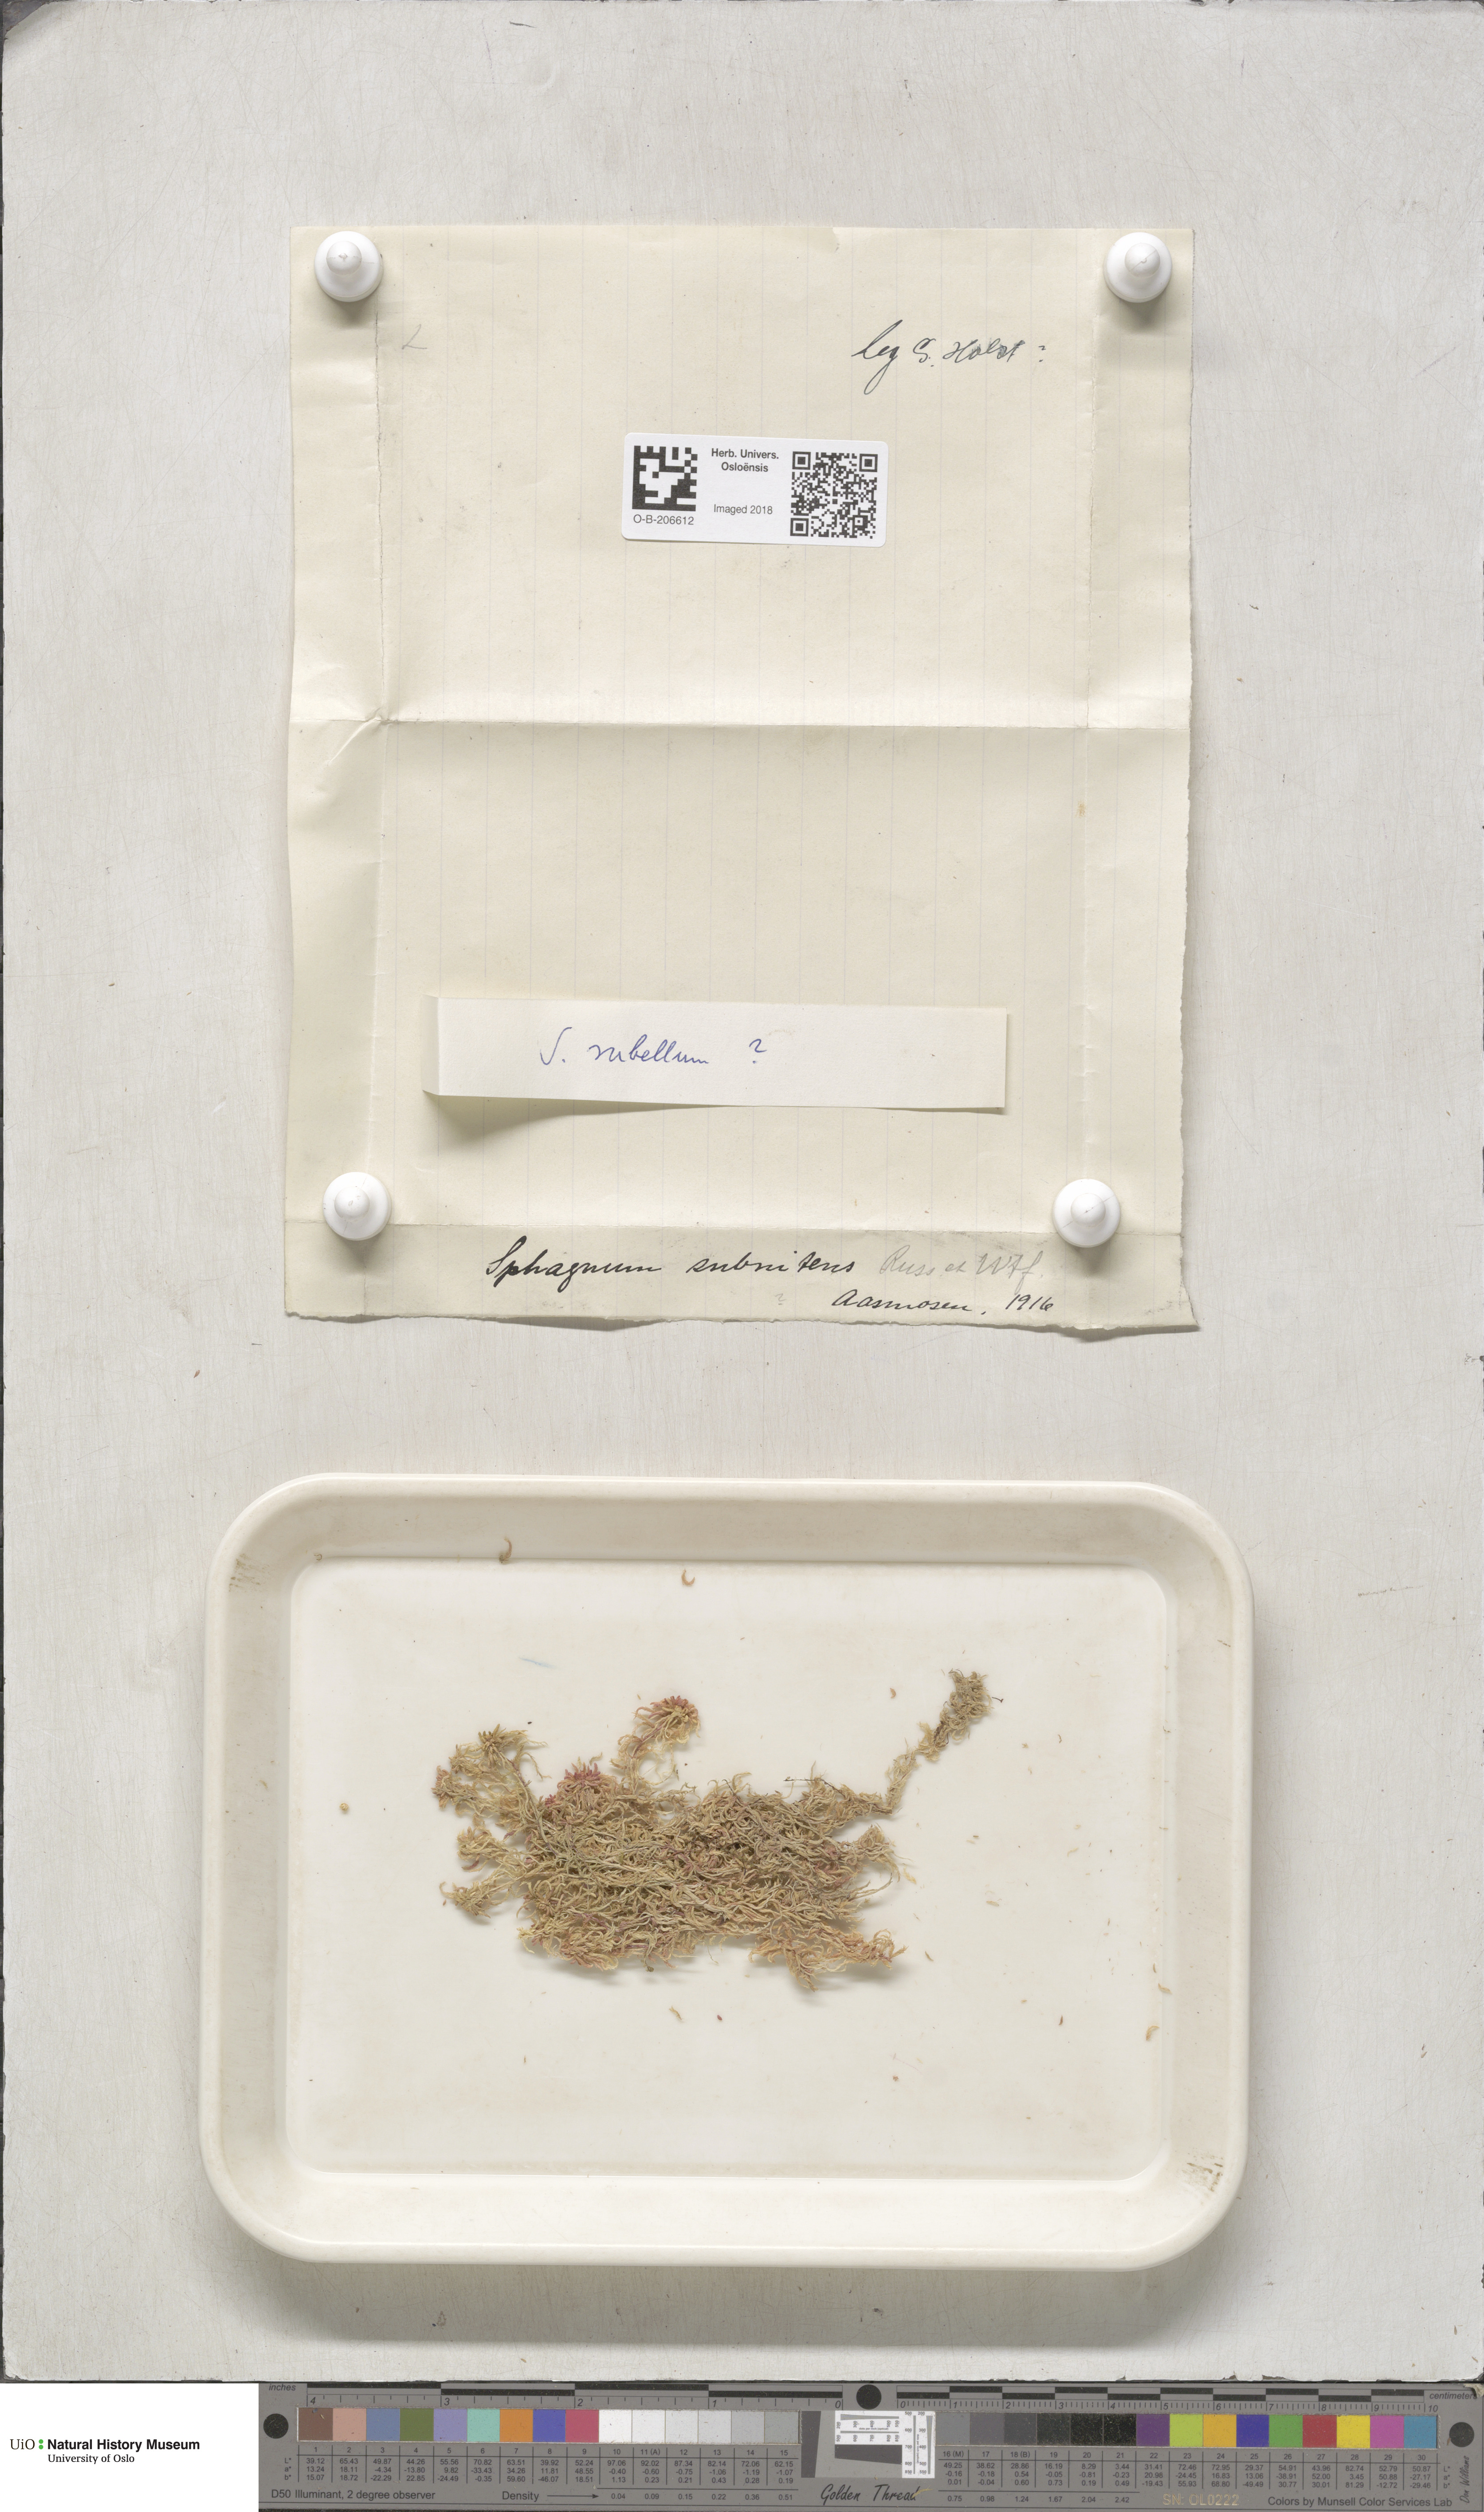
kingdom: Plantae
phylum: Bryophyta
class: Sphagnopsida
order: Sphagnales
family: Sphagnaceae
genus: Sphagnum
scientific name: Sphagnum subnitens
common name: Lustrous bog-moss
